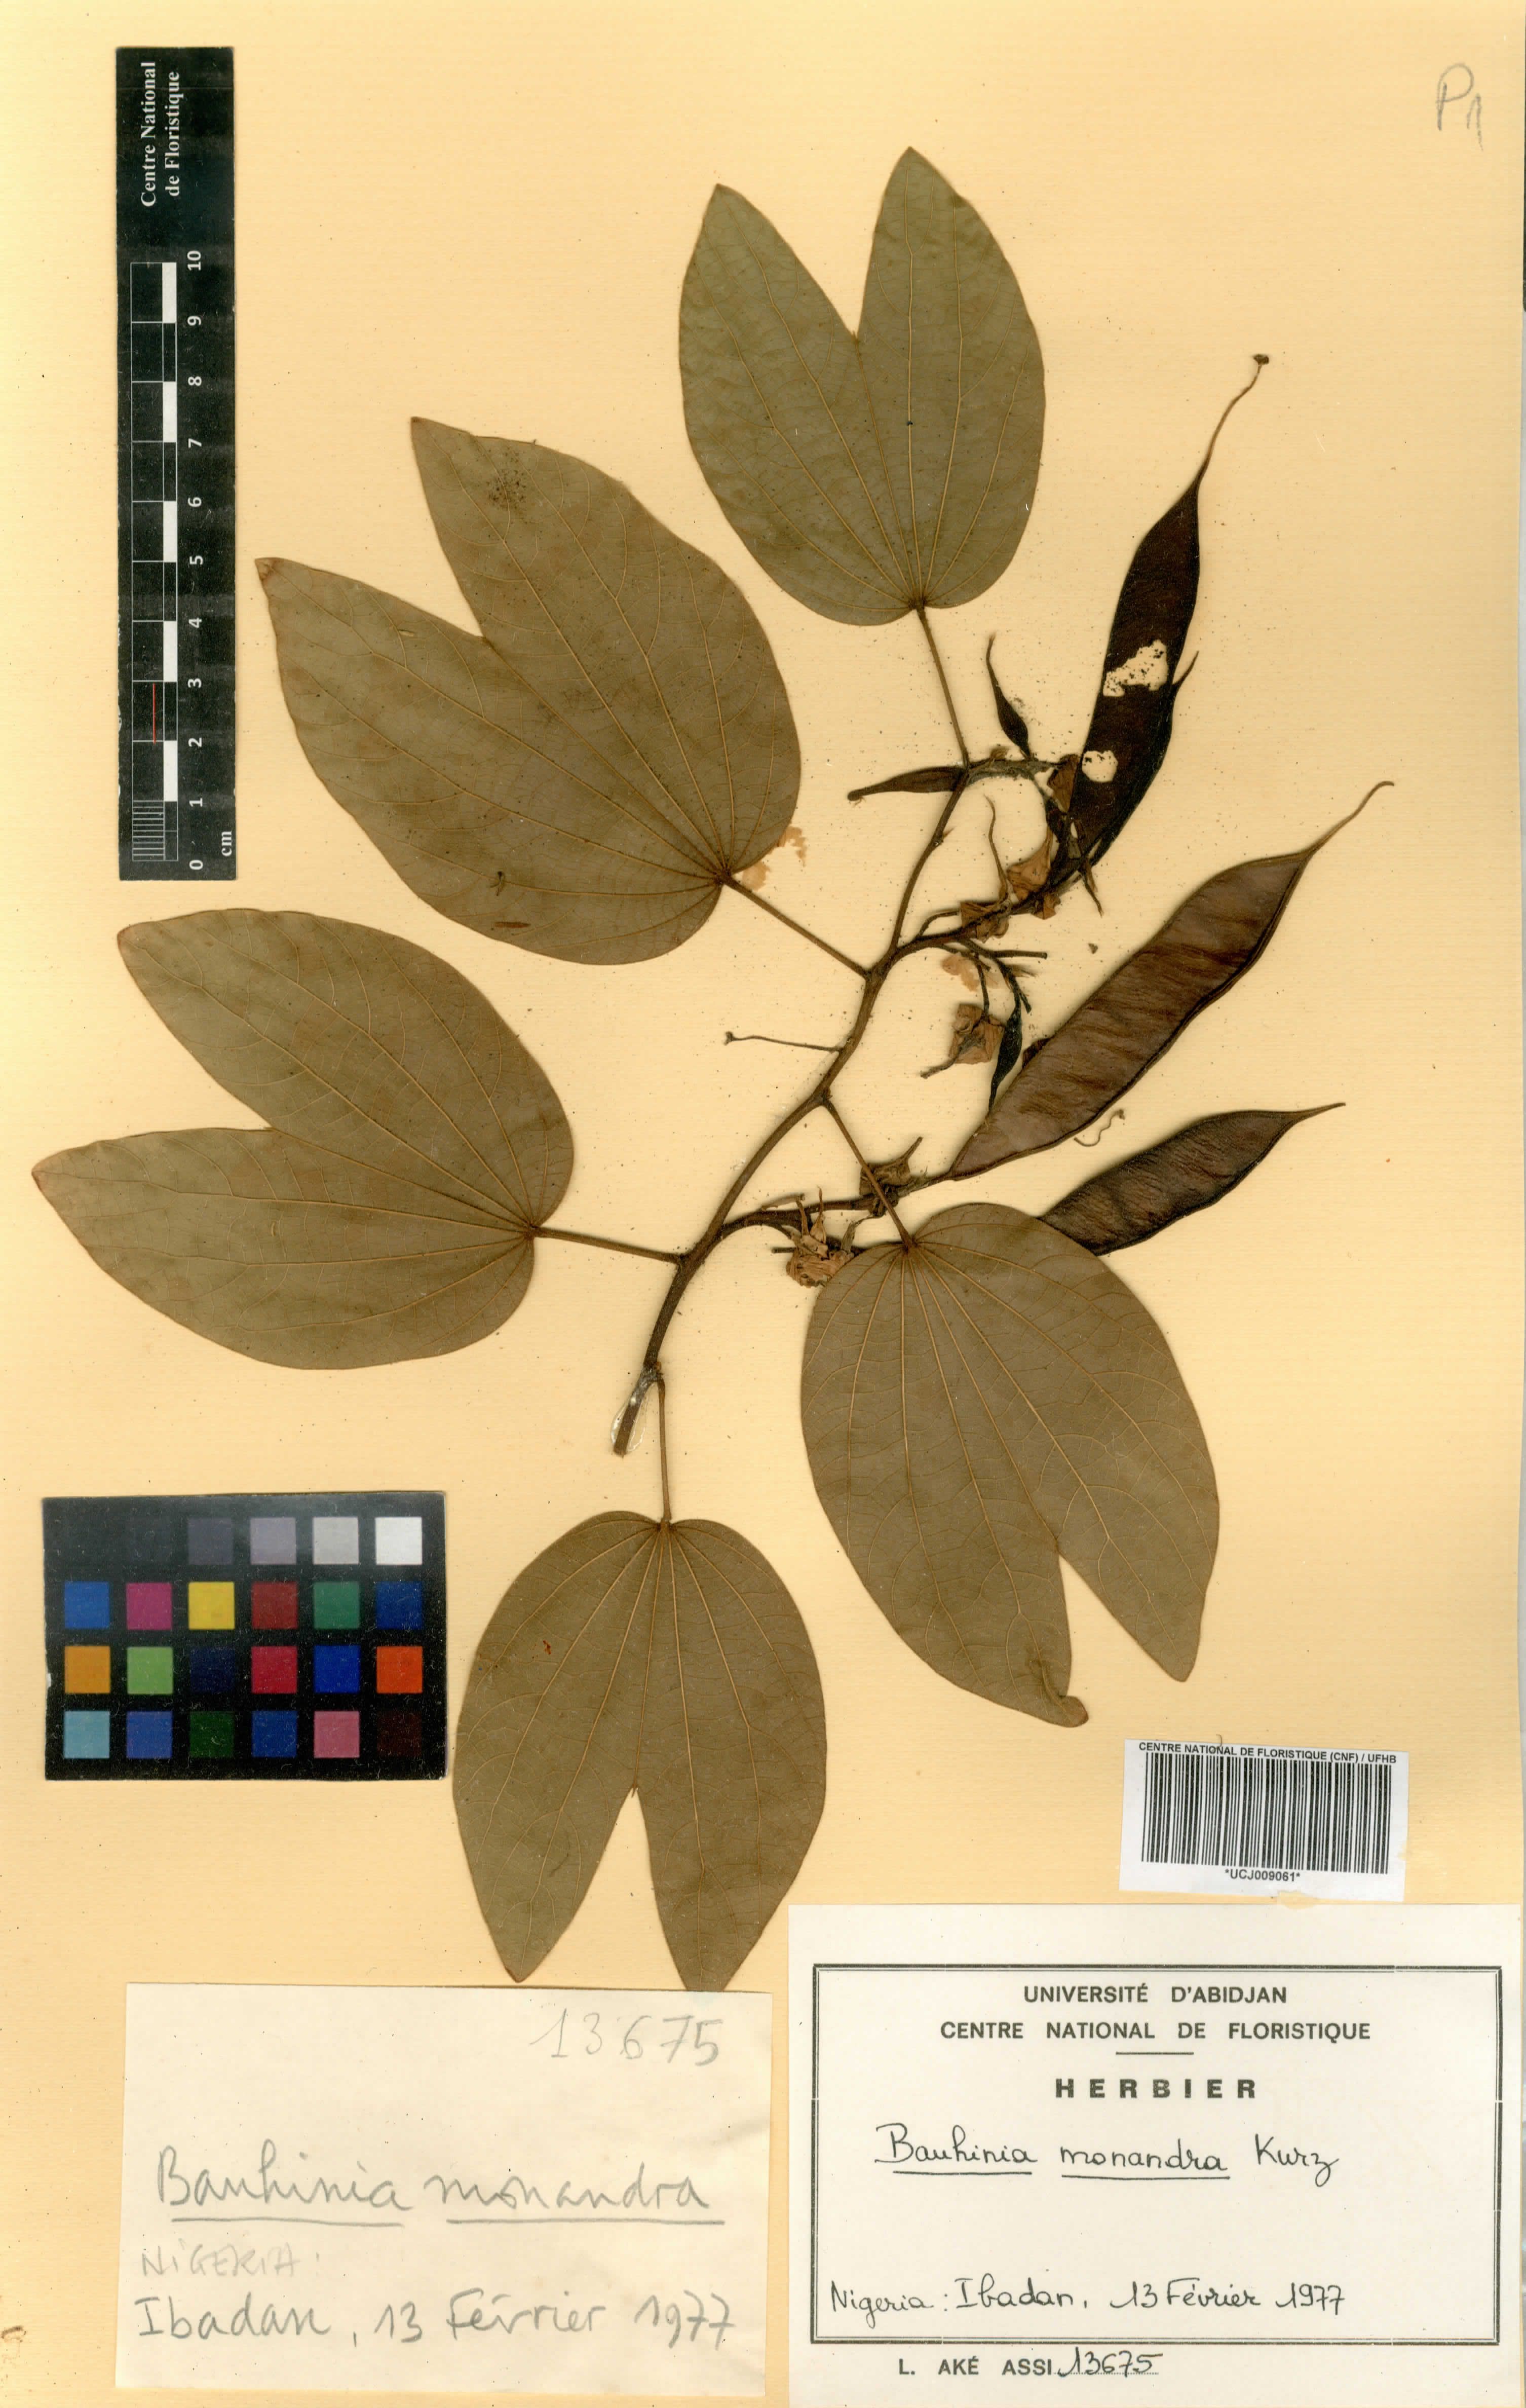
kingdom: Plantae
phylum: Tracheophyta
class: Magnoliopsida
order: Fabales
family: Fabaceae
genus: Bauhinia
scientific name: Bauhinia monandra
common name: Napoleon's plume
